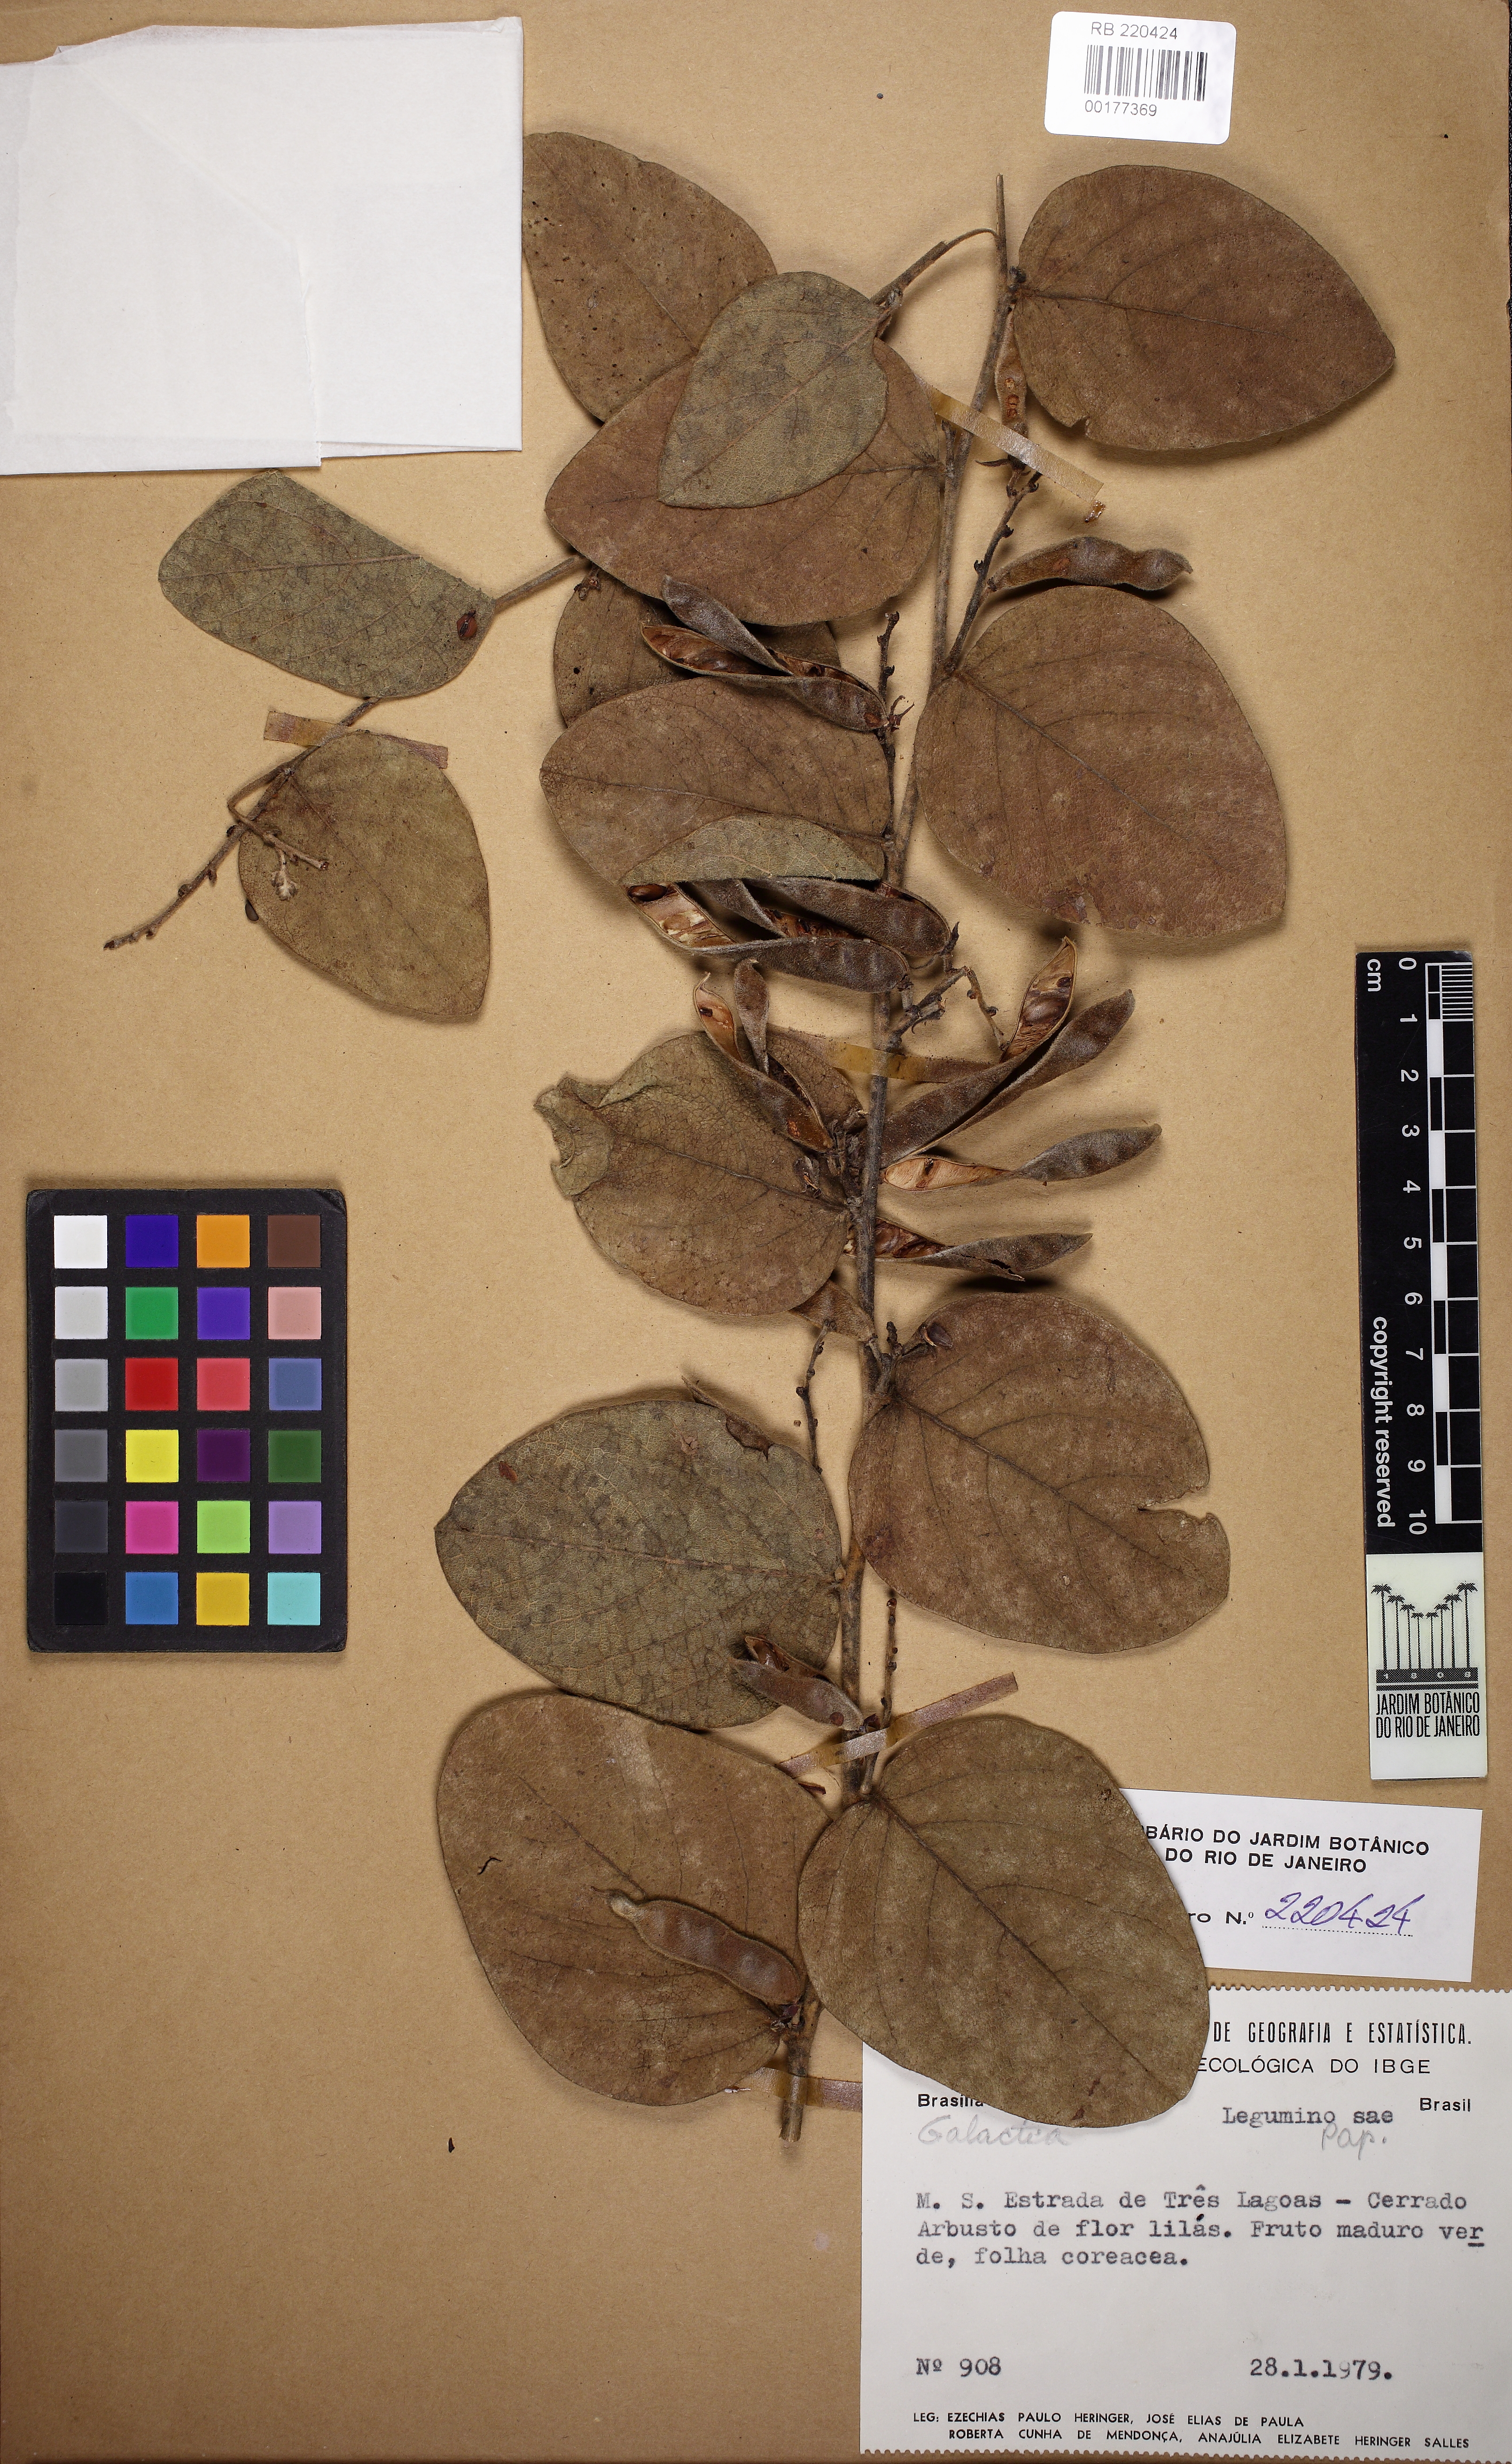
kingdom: Plantae
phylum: Tracheophyta
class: Magnoliopsida
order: Fabales
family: Fabaceae
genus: Galactia
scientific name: Galactia
